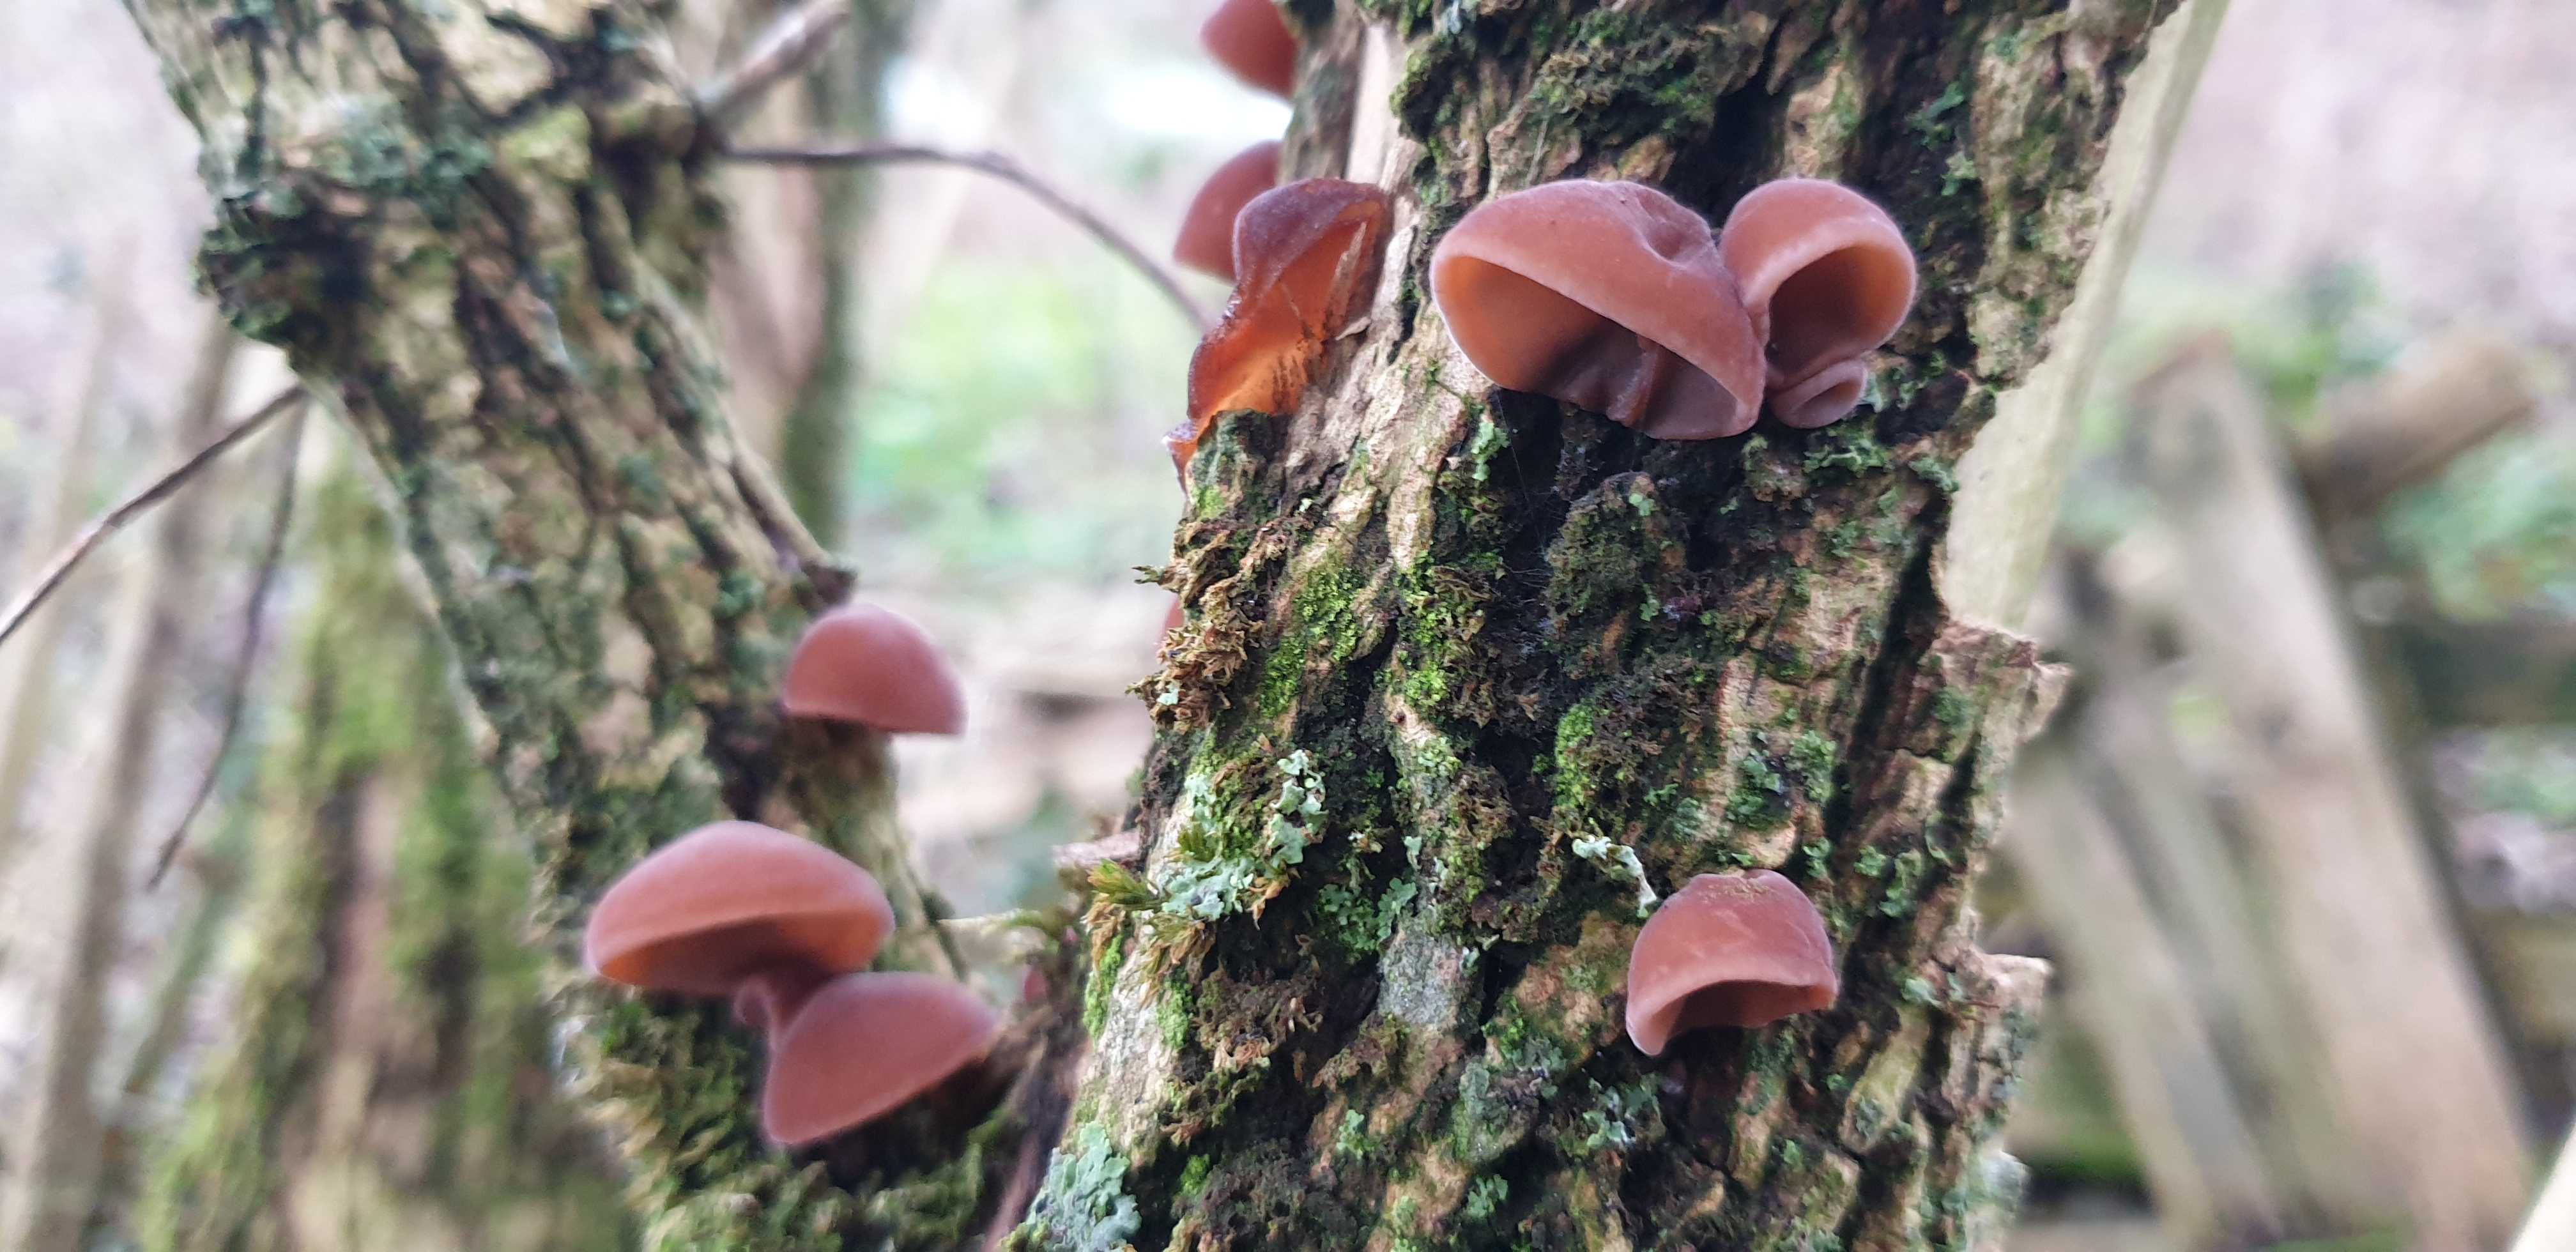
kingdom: Fungi
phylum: Basidiomycota
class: Agaricomycetes
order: Auriculariales
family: Auriculariaceae
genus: Auricularia
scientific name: Auricularia auricula-judae
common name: almindelig judasøre
